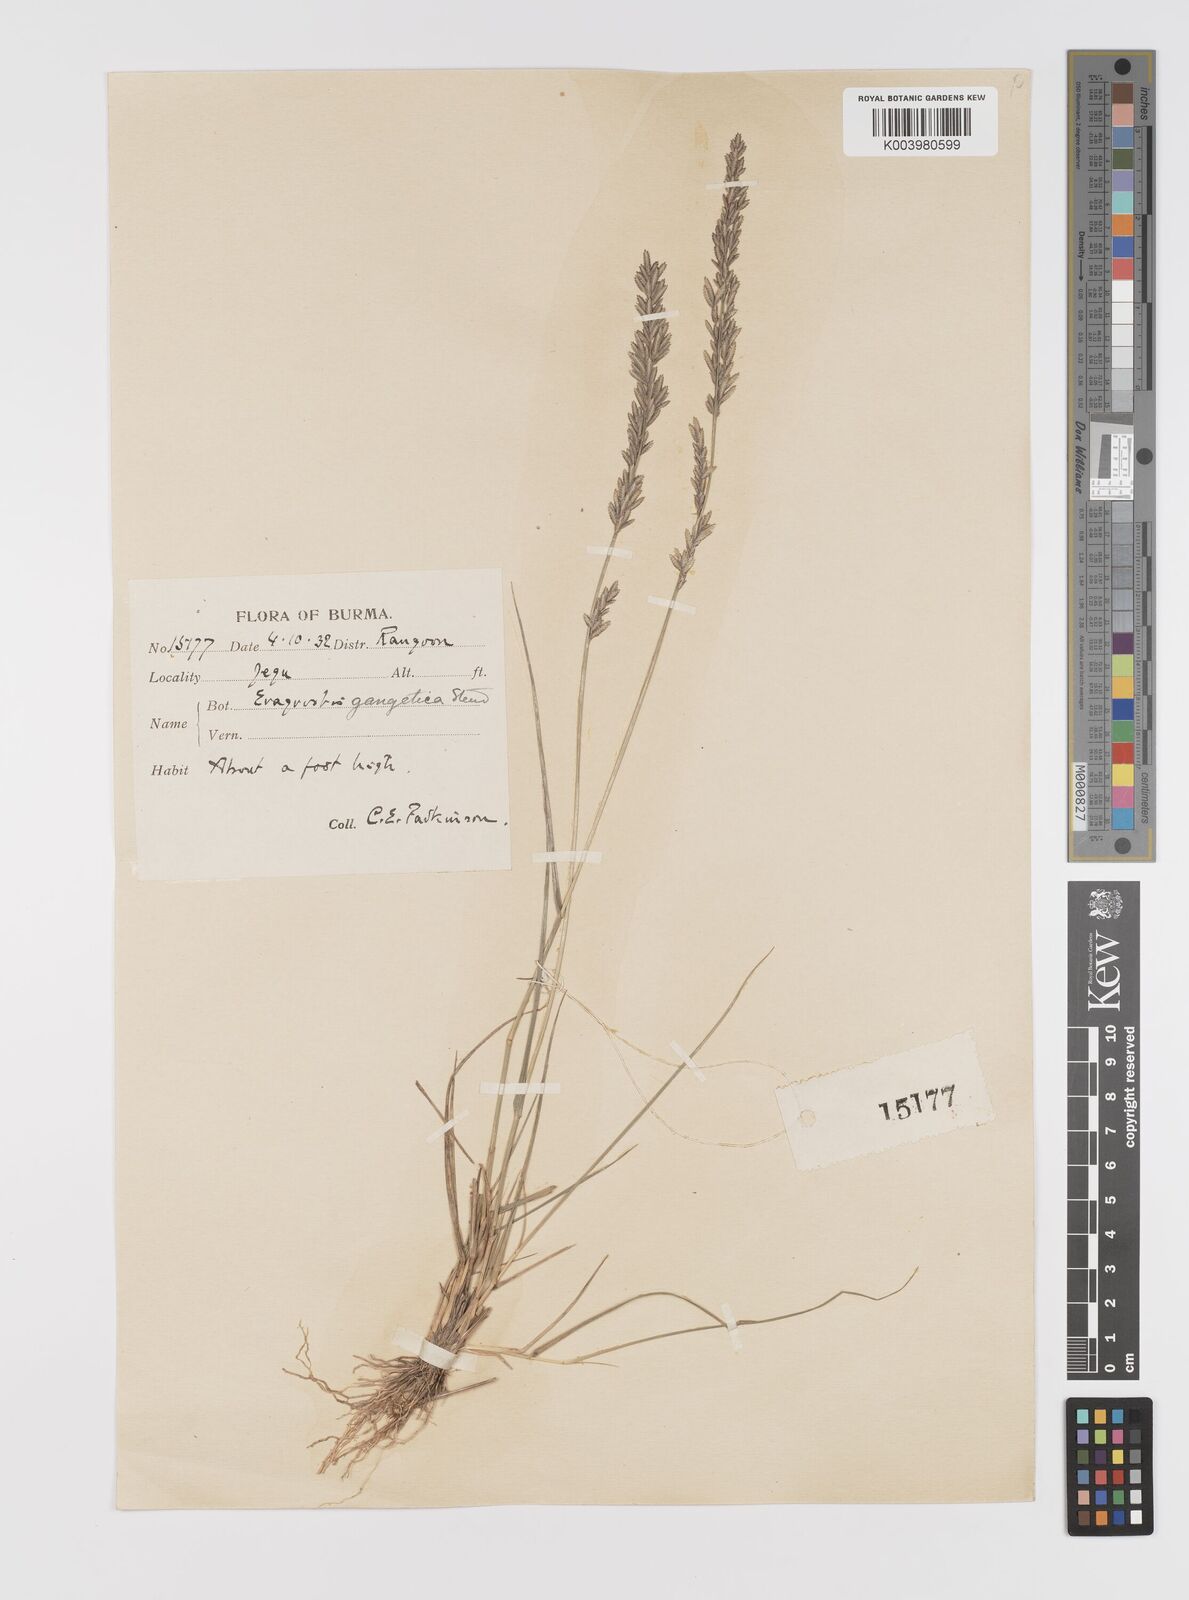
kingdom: Plantae
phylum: Tracheophyta
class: Liliopsida
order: Poales
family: Poaceae
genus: Eragrostis
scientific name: Eragrostis atrovirens
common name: Thalia lovegrass
